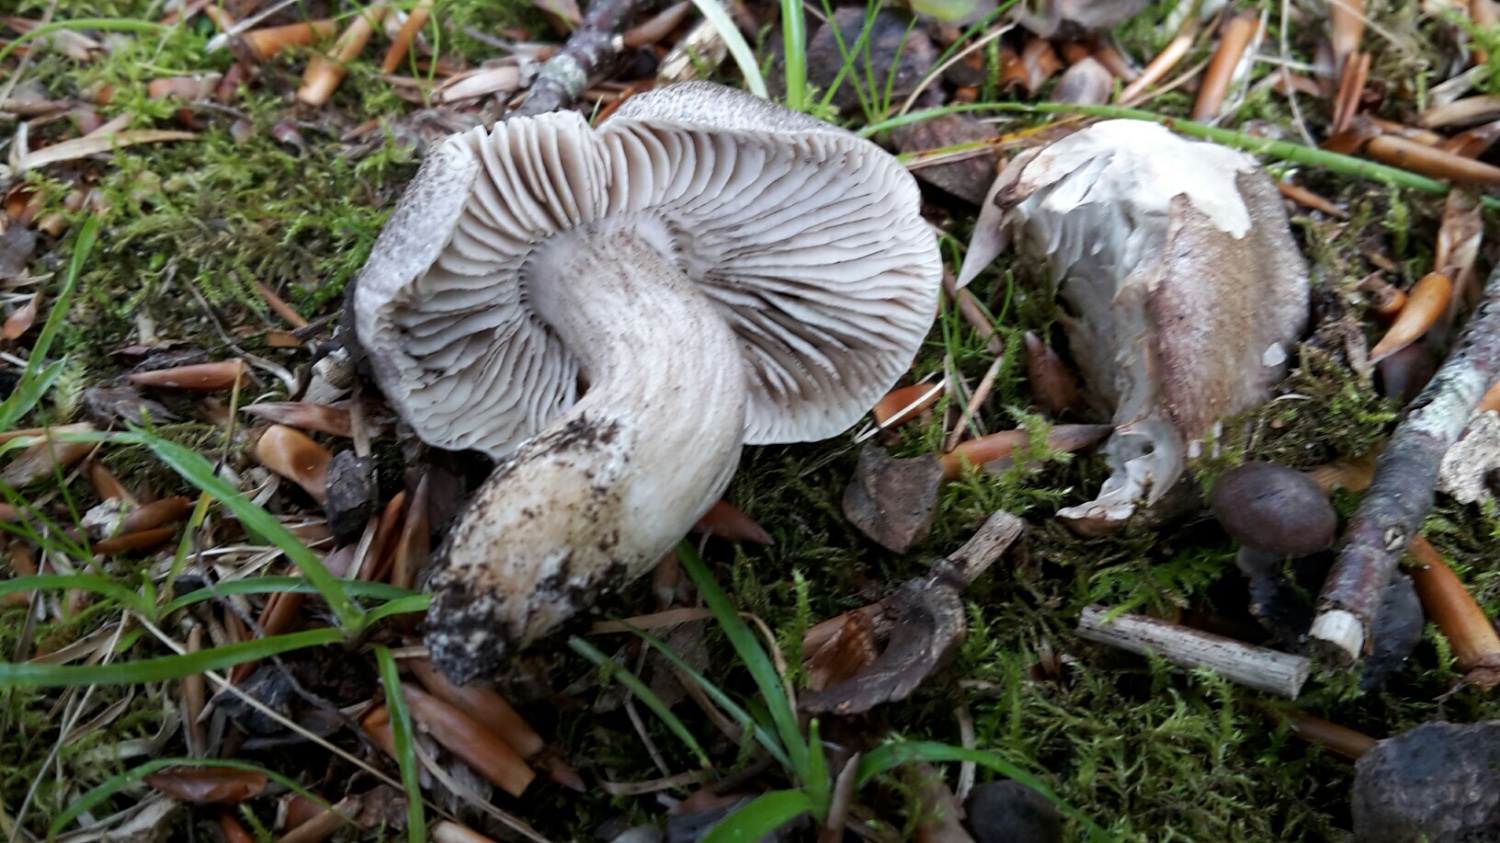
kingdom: Fungi
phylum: Basidiomycota
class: Agaricomycetes
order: Agaricales
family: Tricholomataceae
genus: Tricholoma
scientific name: Tricholoma sciodes
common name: stribet ridderhat
